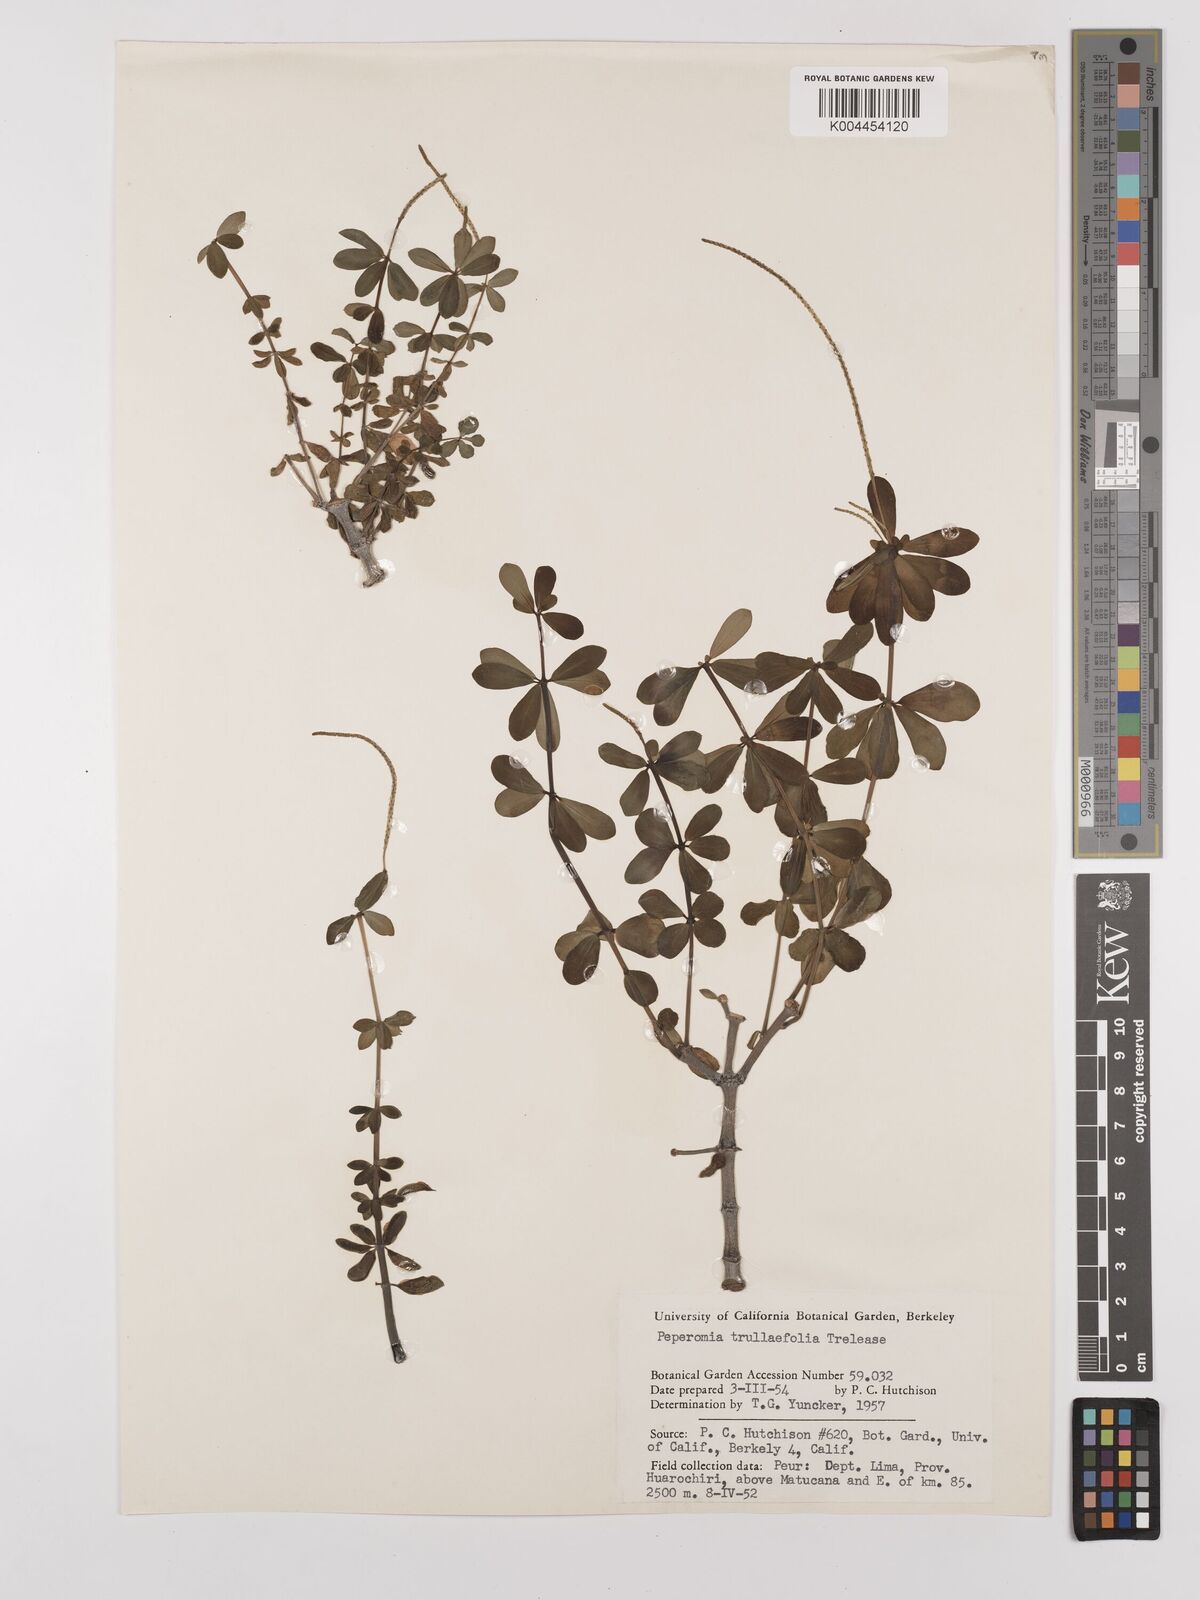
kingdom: Plantae
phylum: Tracheophyta
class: Magnoliopsida
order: Piperales
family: Piperaceae
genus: Peperomia
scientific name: Peperomia galioides
